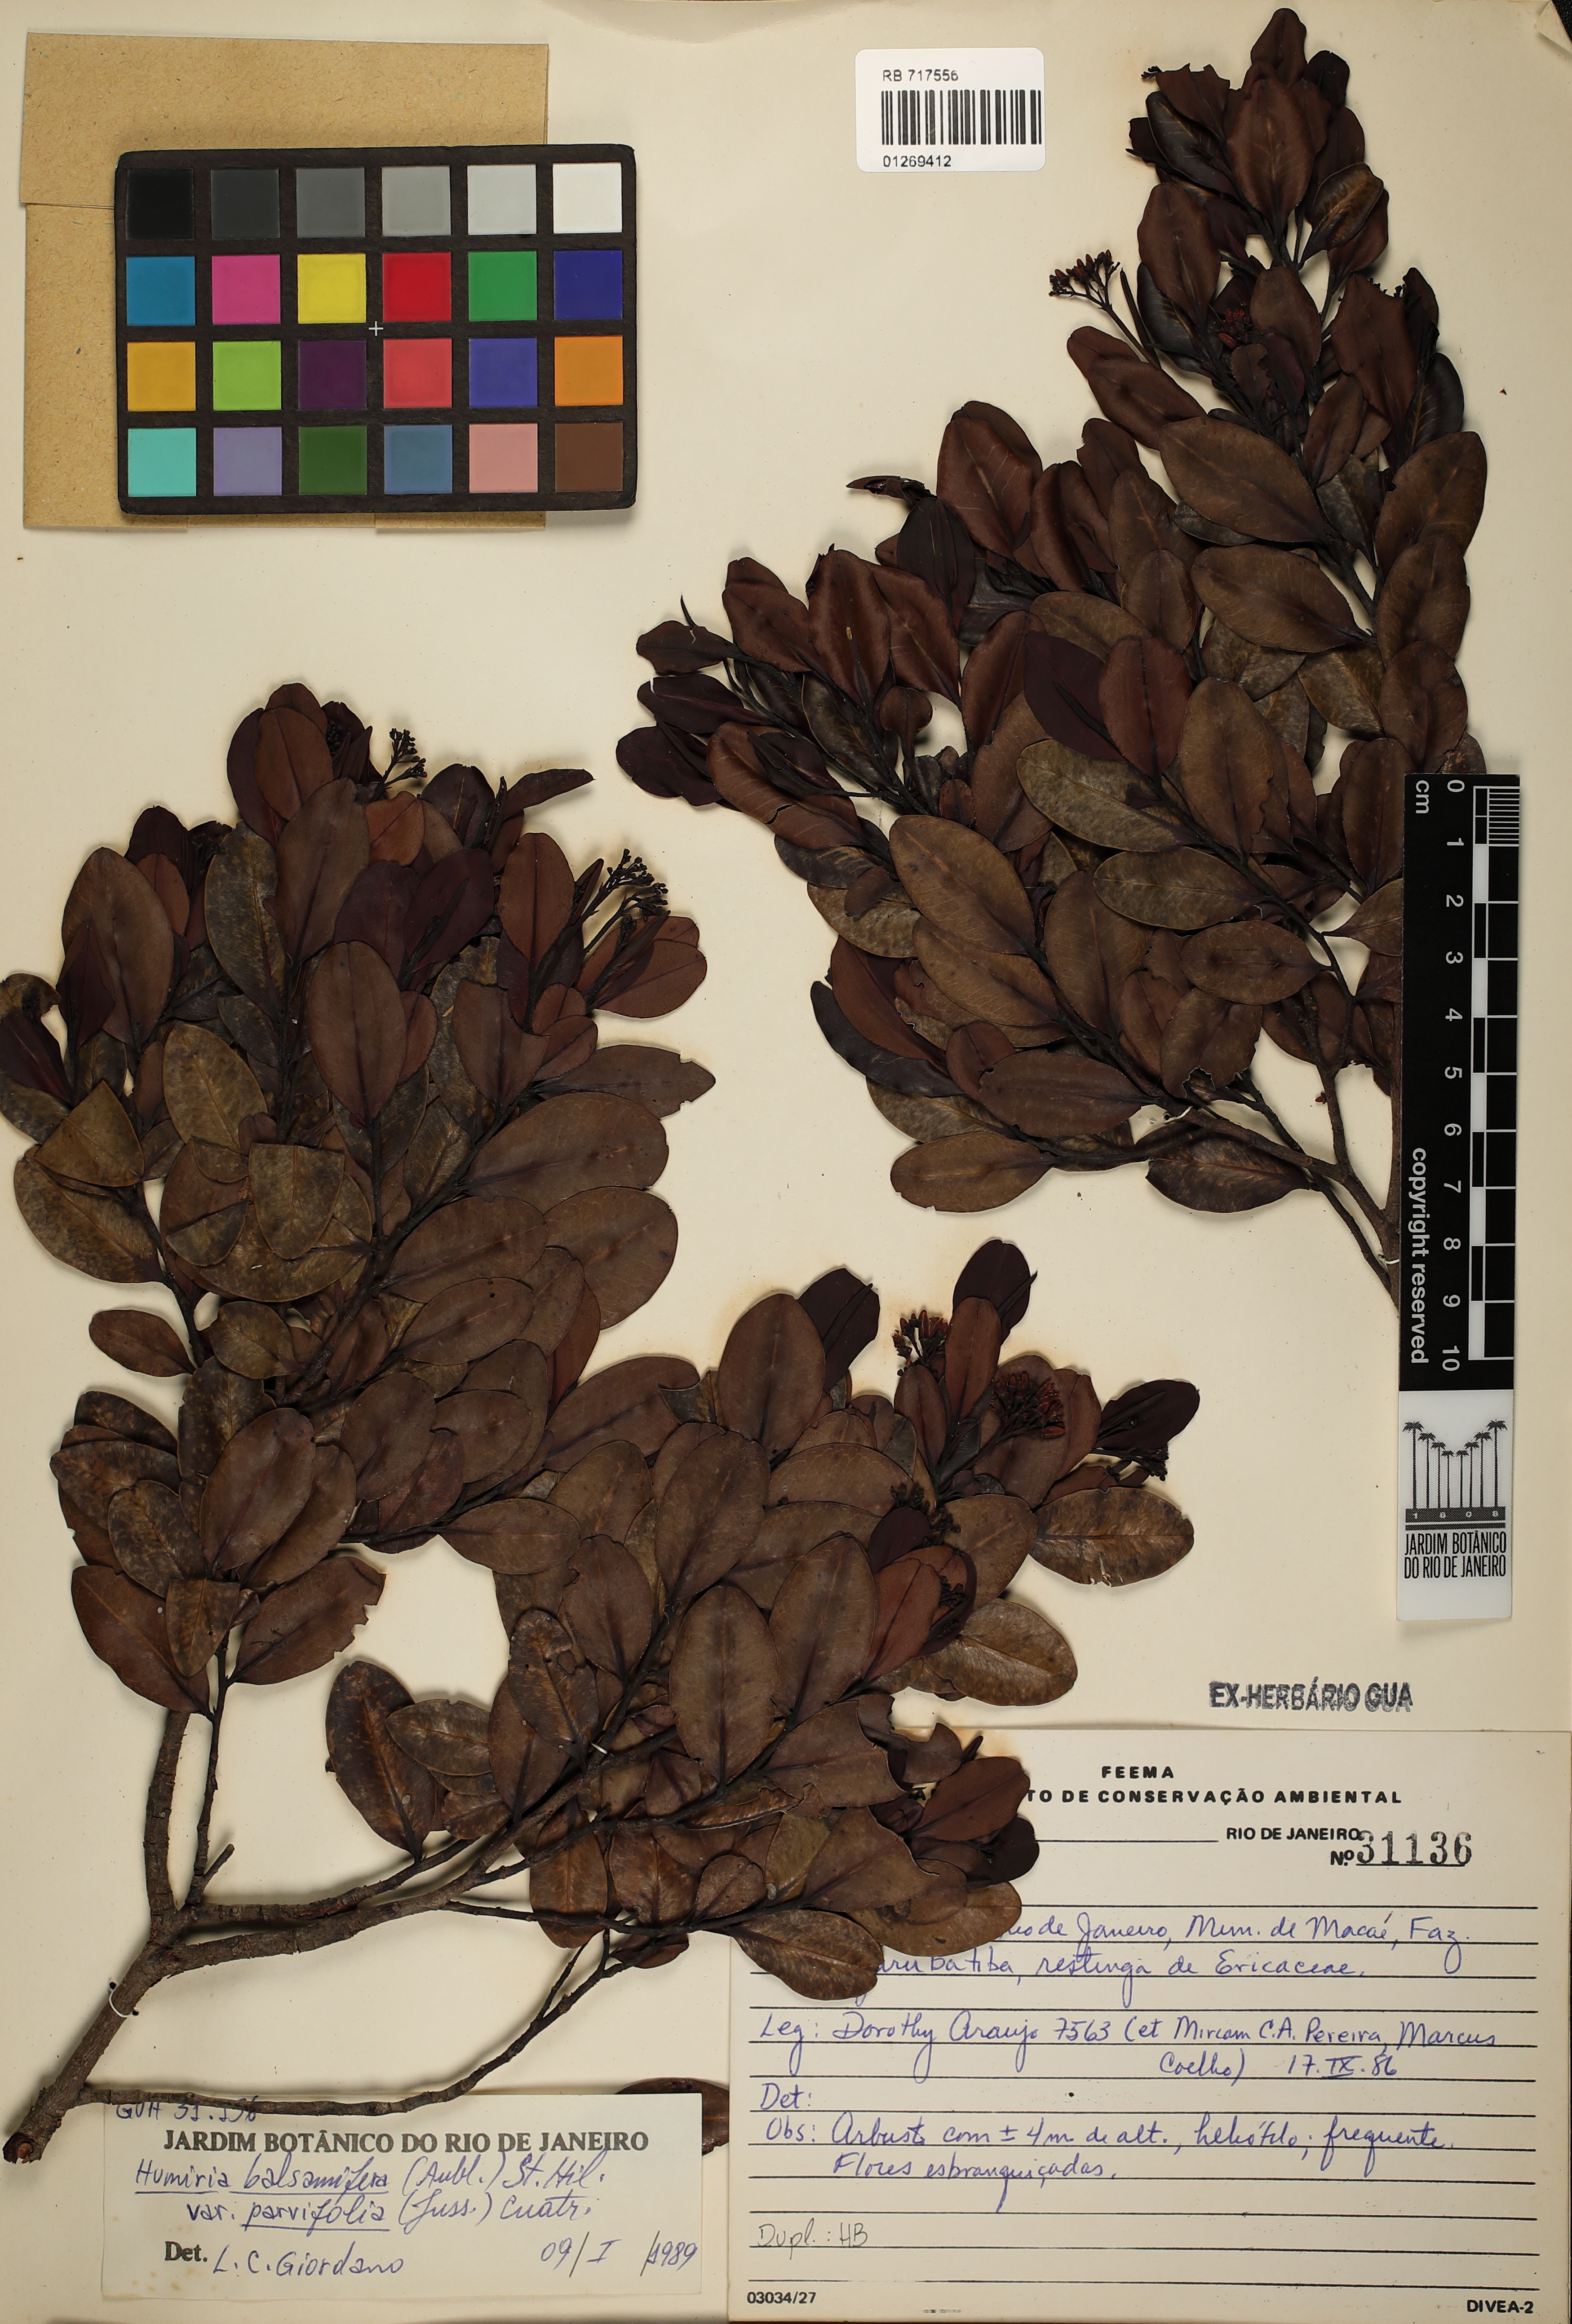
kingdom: Plantae
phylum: Tracheophyta
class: Magnoliopsida
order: Malpighiales
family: Humiriaceae
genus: Humiria
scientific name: Humiria parvifolia
